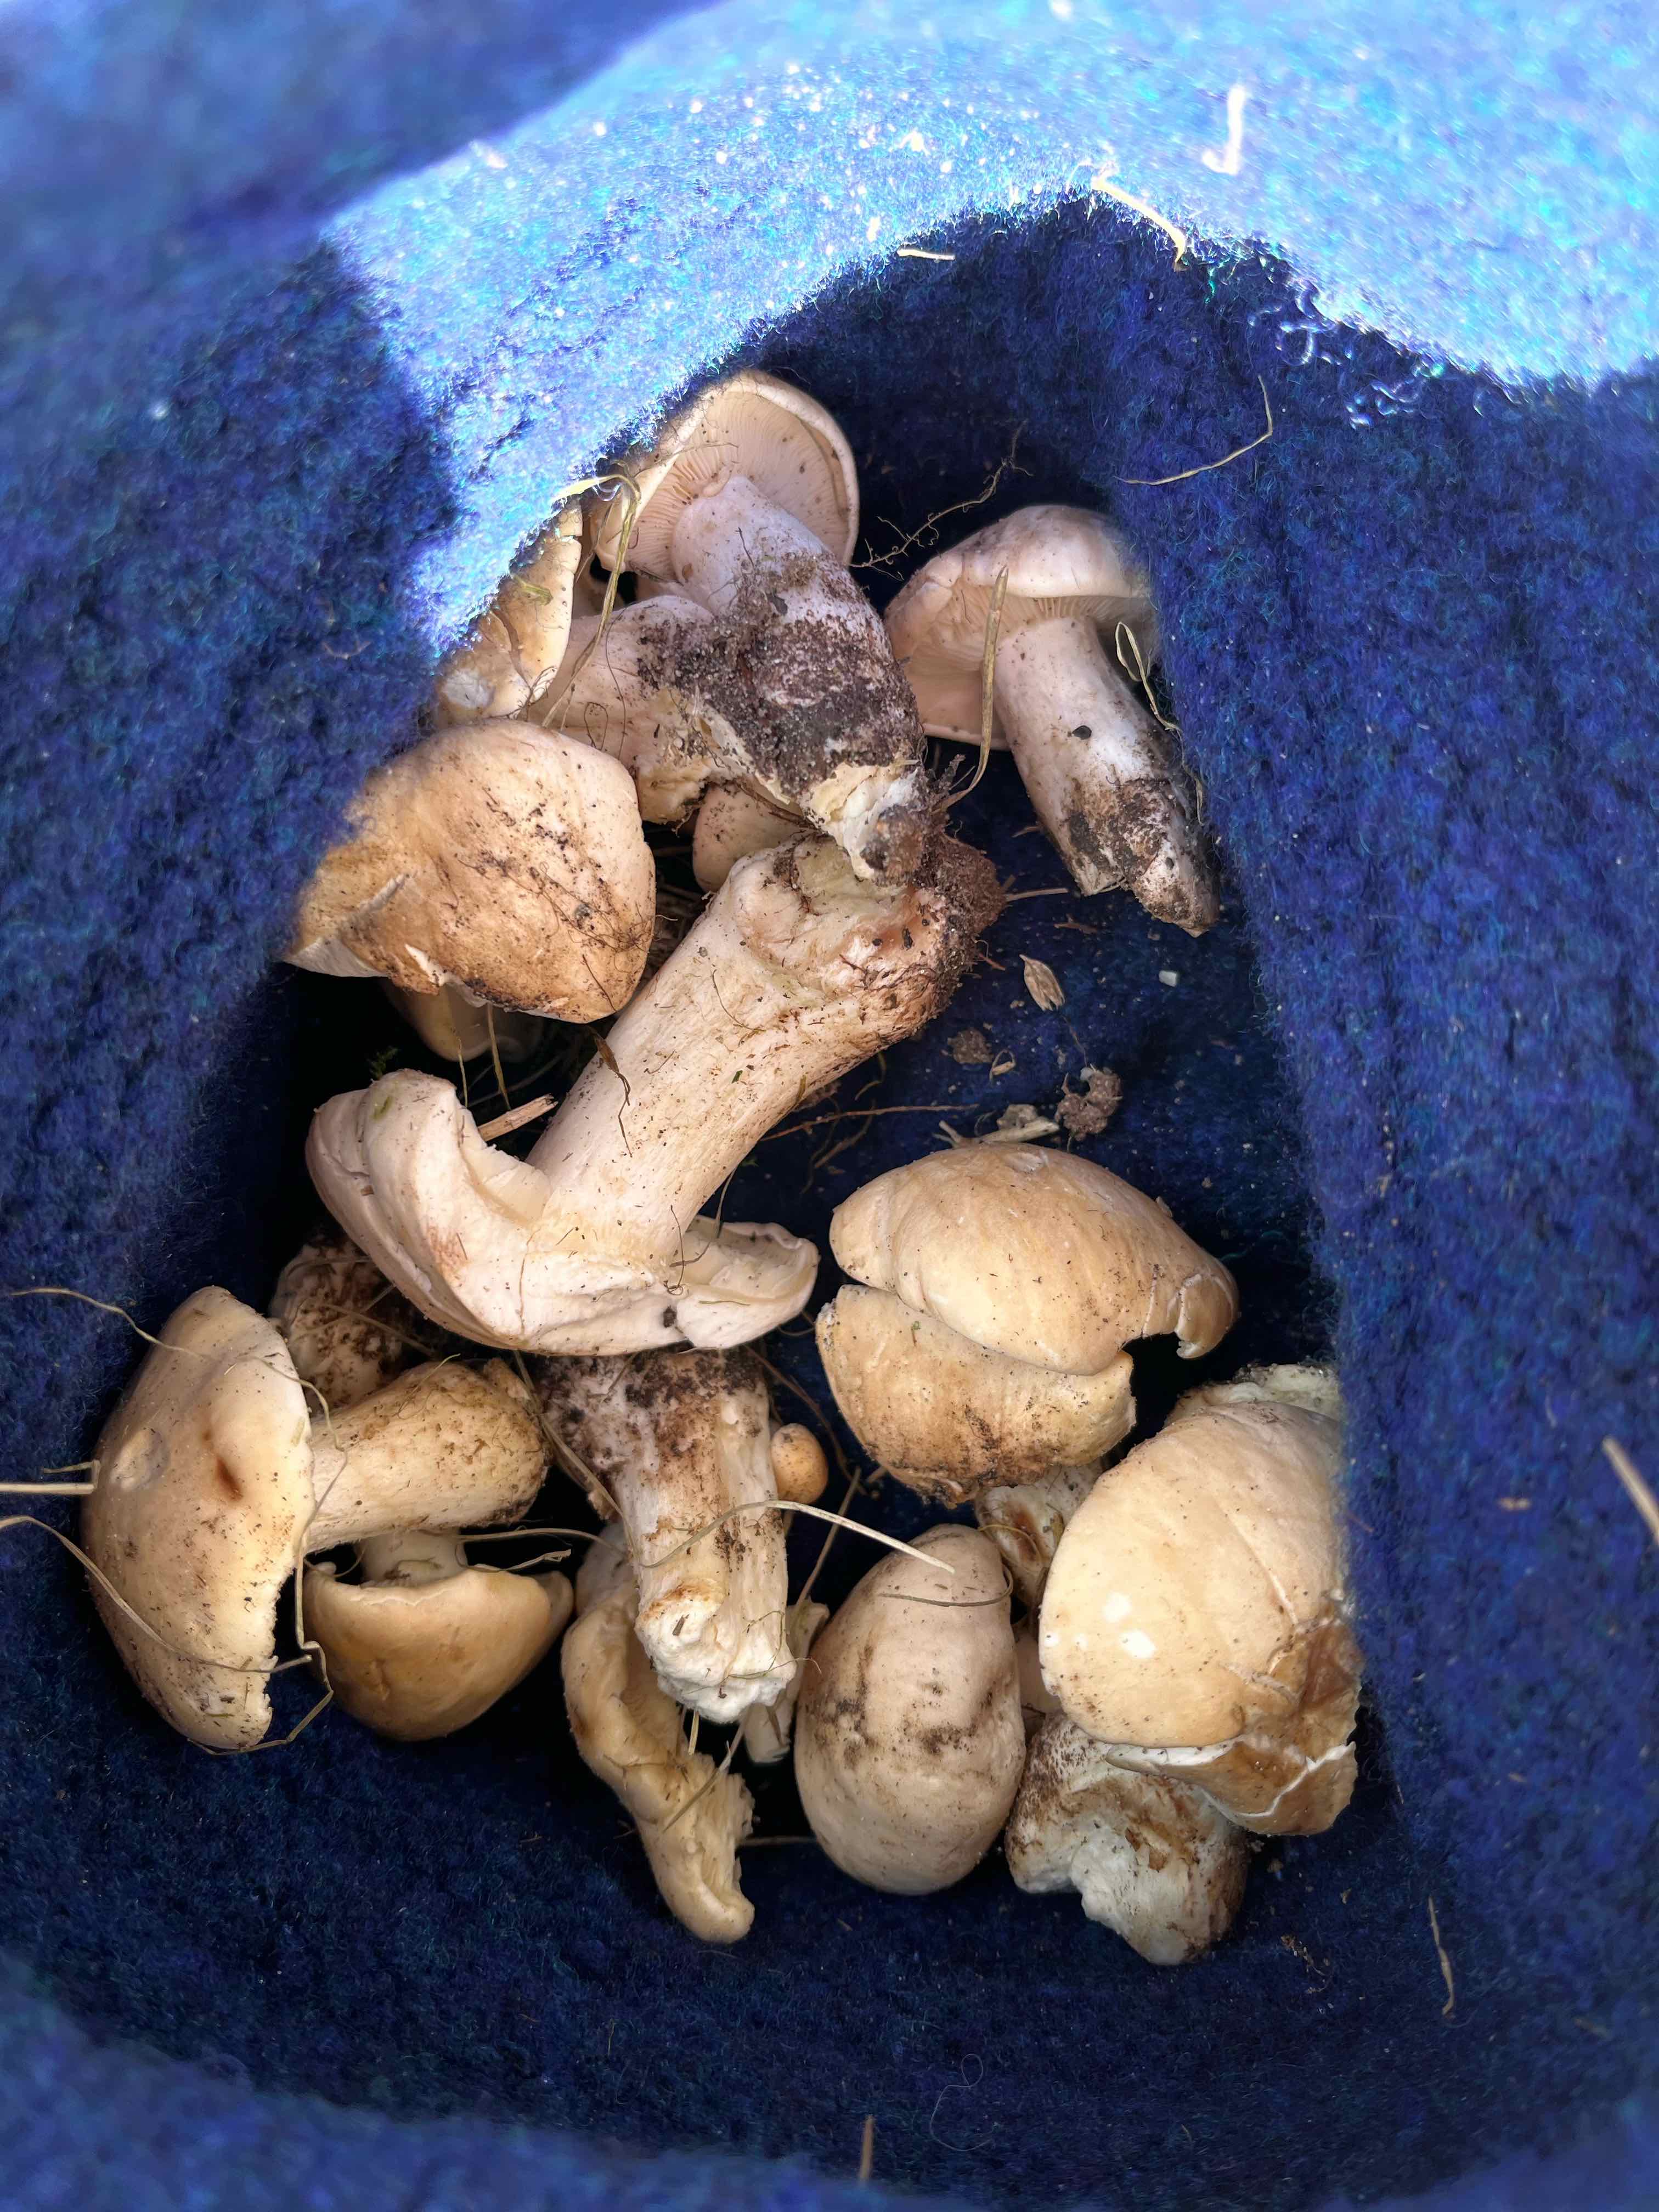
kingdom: Fungi
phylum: Basidiomycota
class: Agaricomycetes
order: Agaricales
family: Lyophyllaceae
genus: Calocybe
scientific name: Calocybe gambosa
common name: vårmusseron
